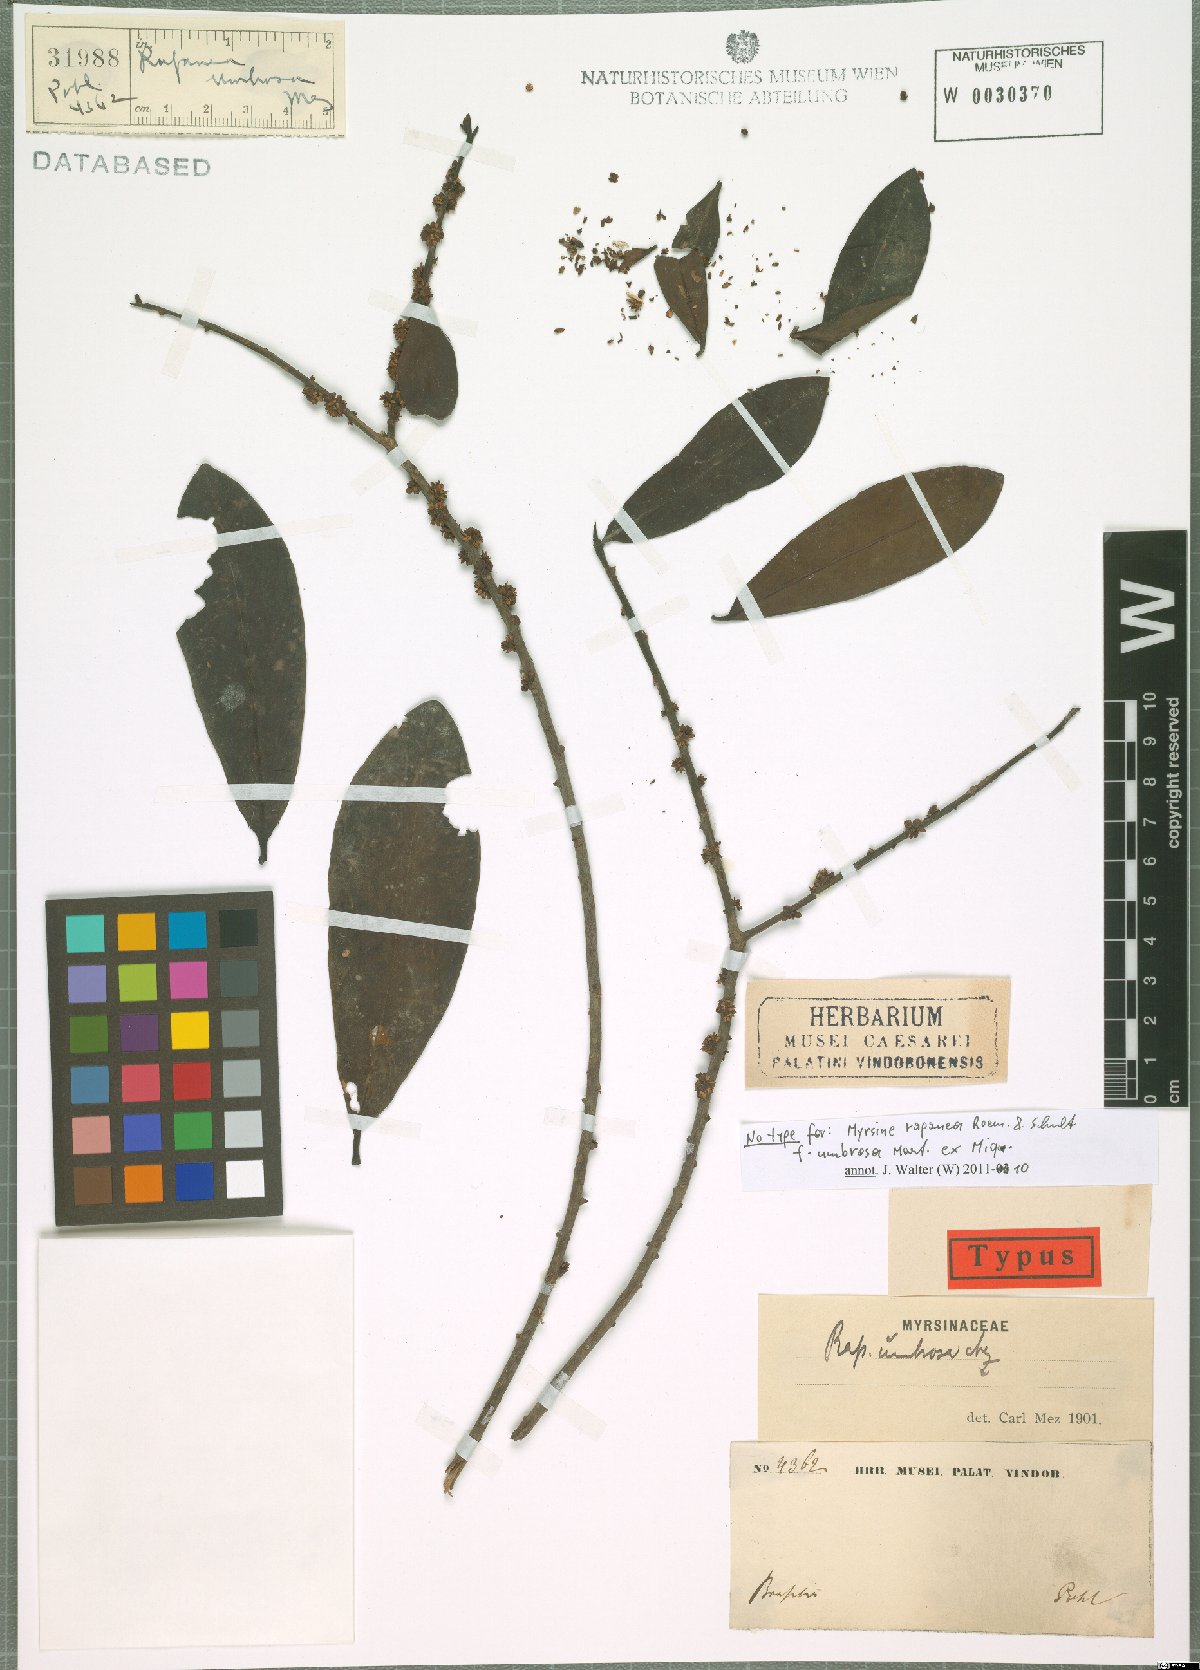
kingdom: Plantae
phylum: Tracheophyta
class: Magnoliopsida
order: Ericales
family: Primulaceae
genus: Myrsine
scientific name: Myrsine guianensis
